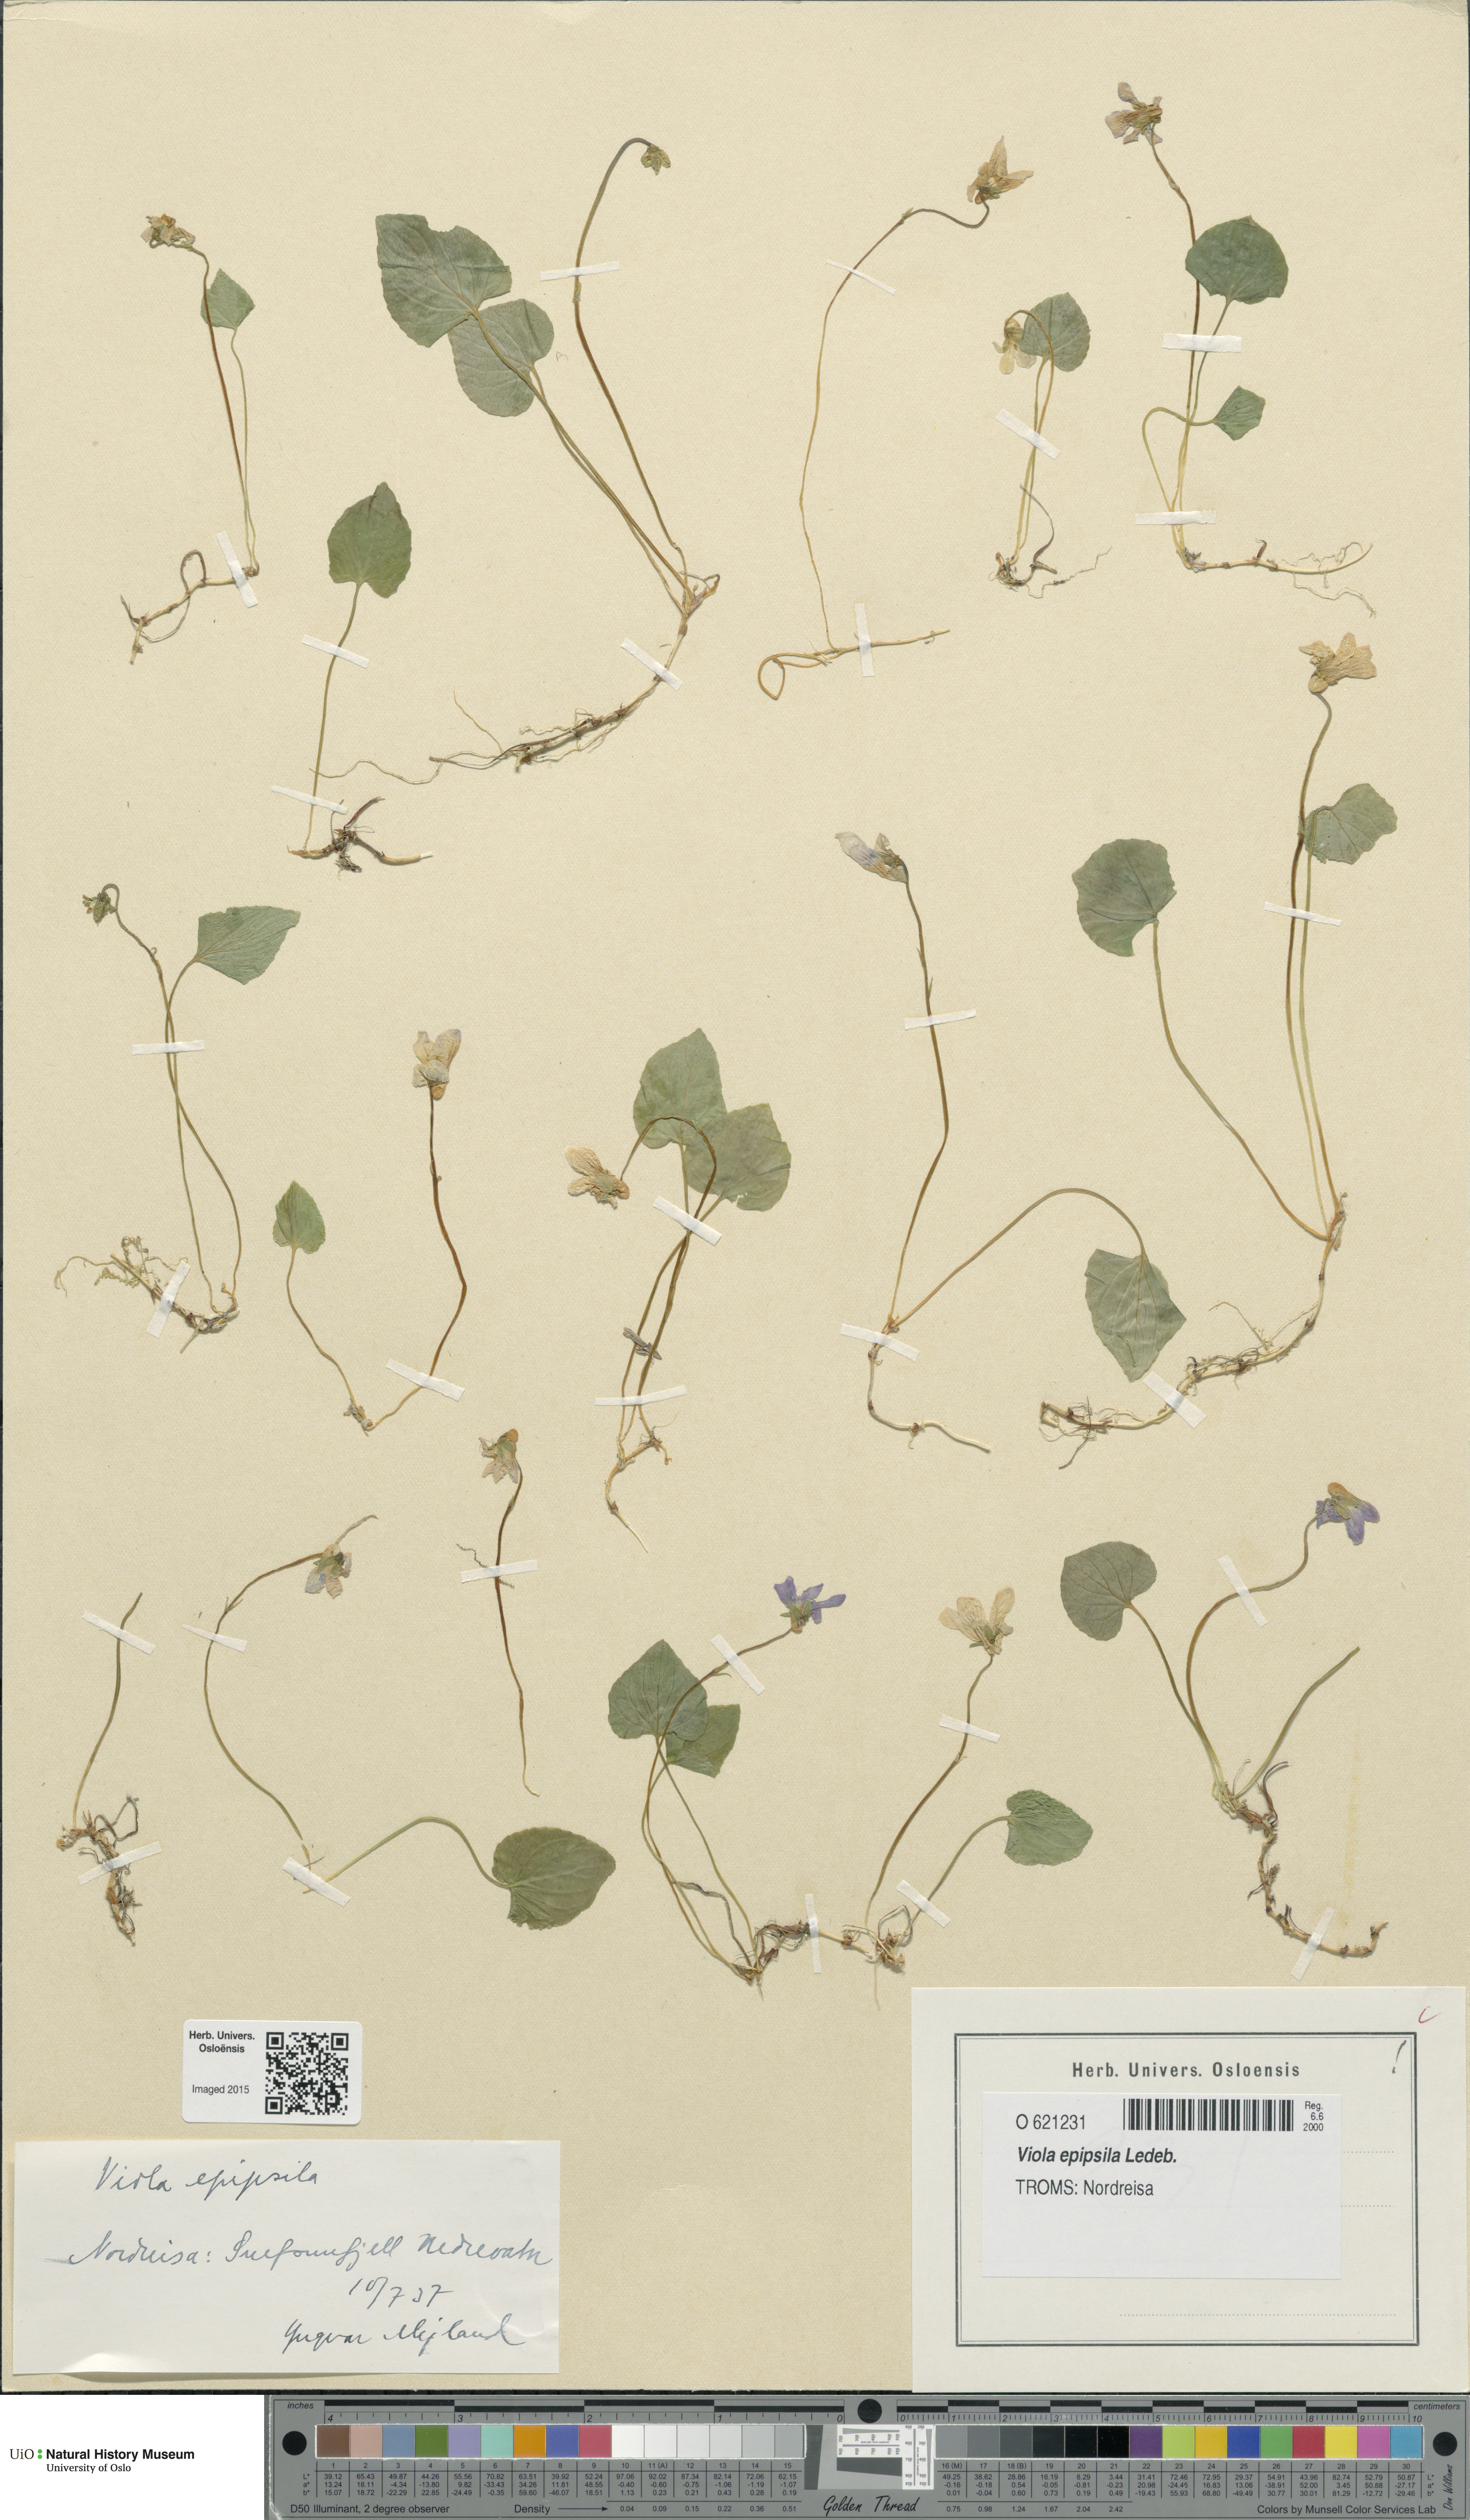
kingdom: Plantae
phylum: Tracheophyta
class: Magnoliopsida
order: Malpighiales
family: Violaceae
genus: Viola
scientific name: Viola epipsila
